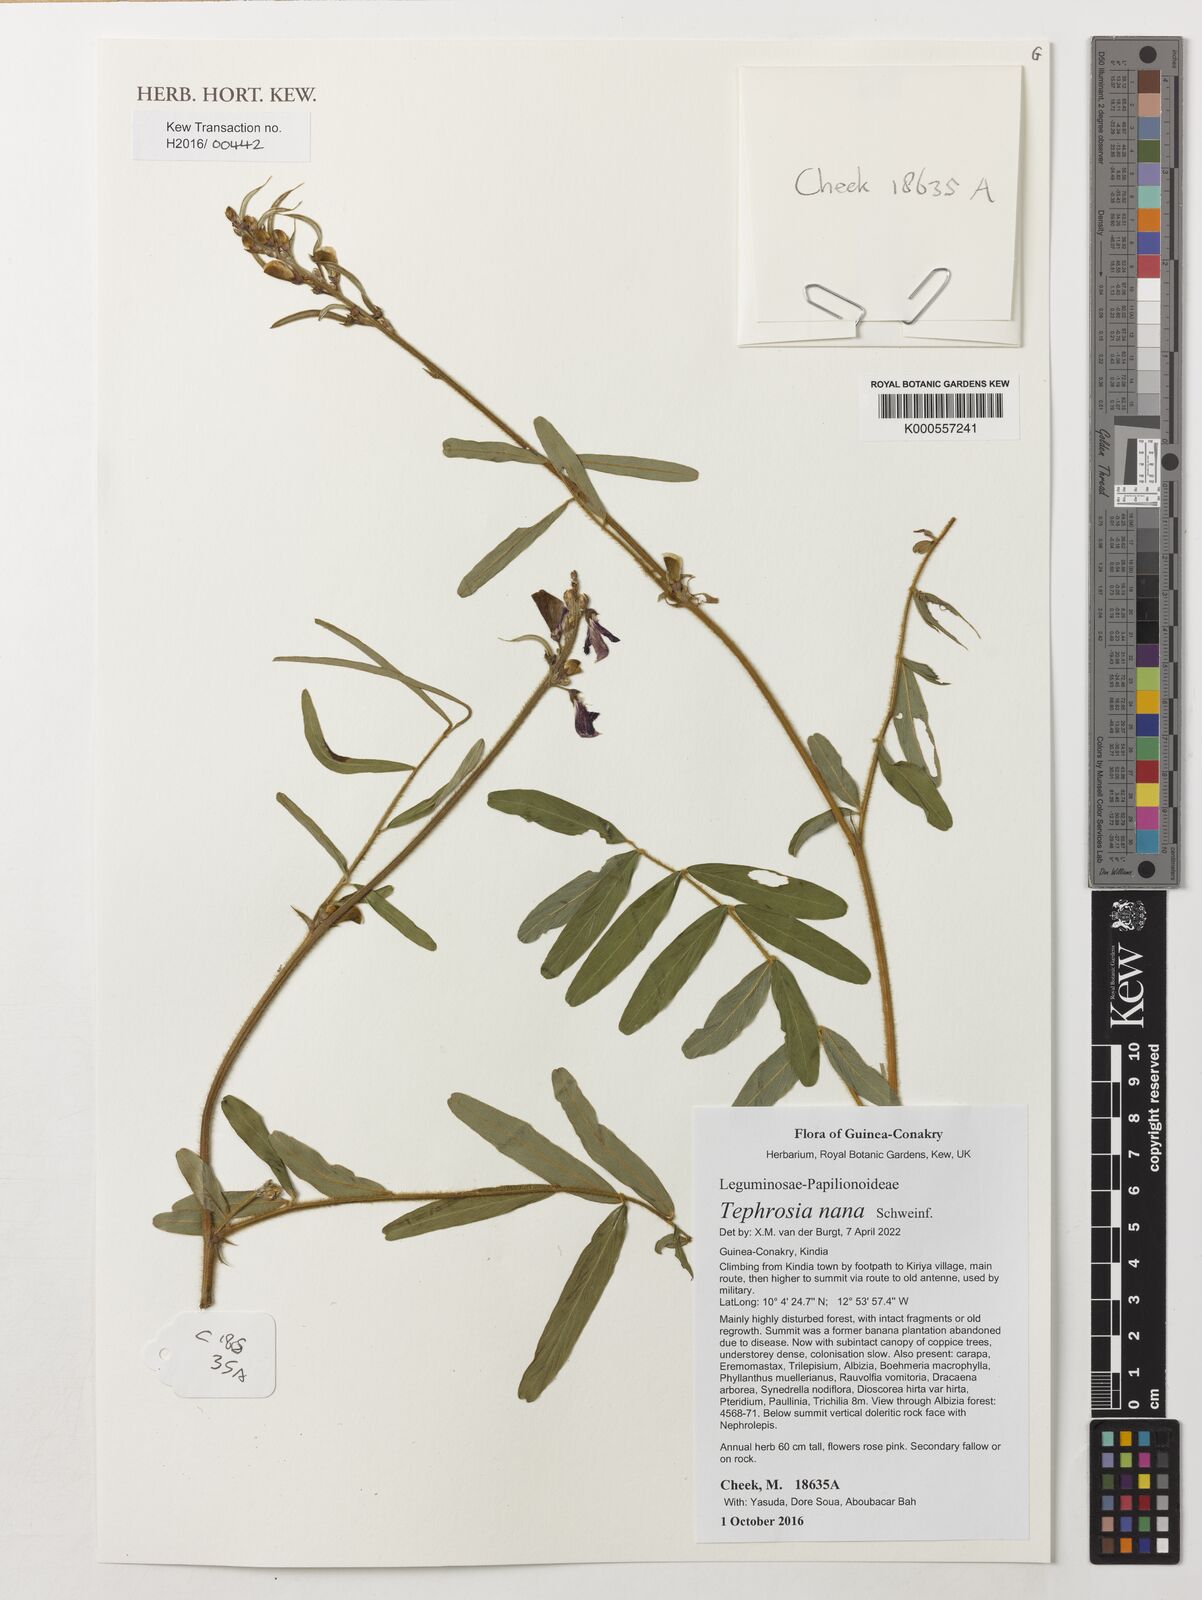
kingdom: Plantae
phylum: Tracheophyta
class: Magnoliopsida
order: Fabales
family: Fabaceae
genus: Tephrosia
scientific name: Tephrosia nana
